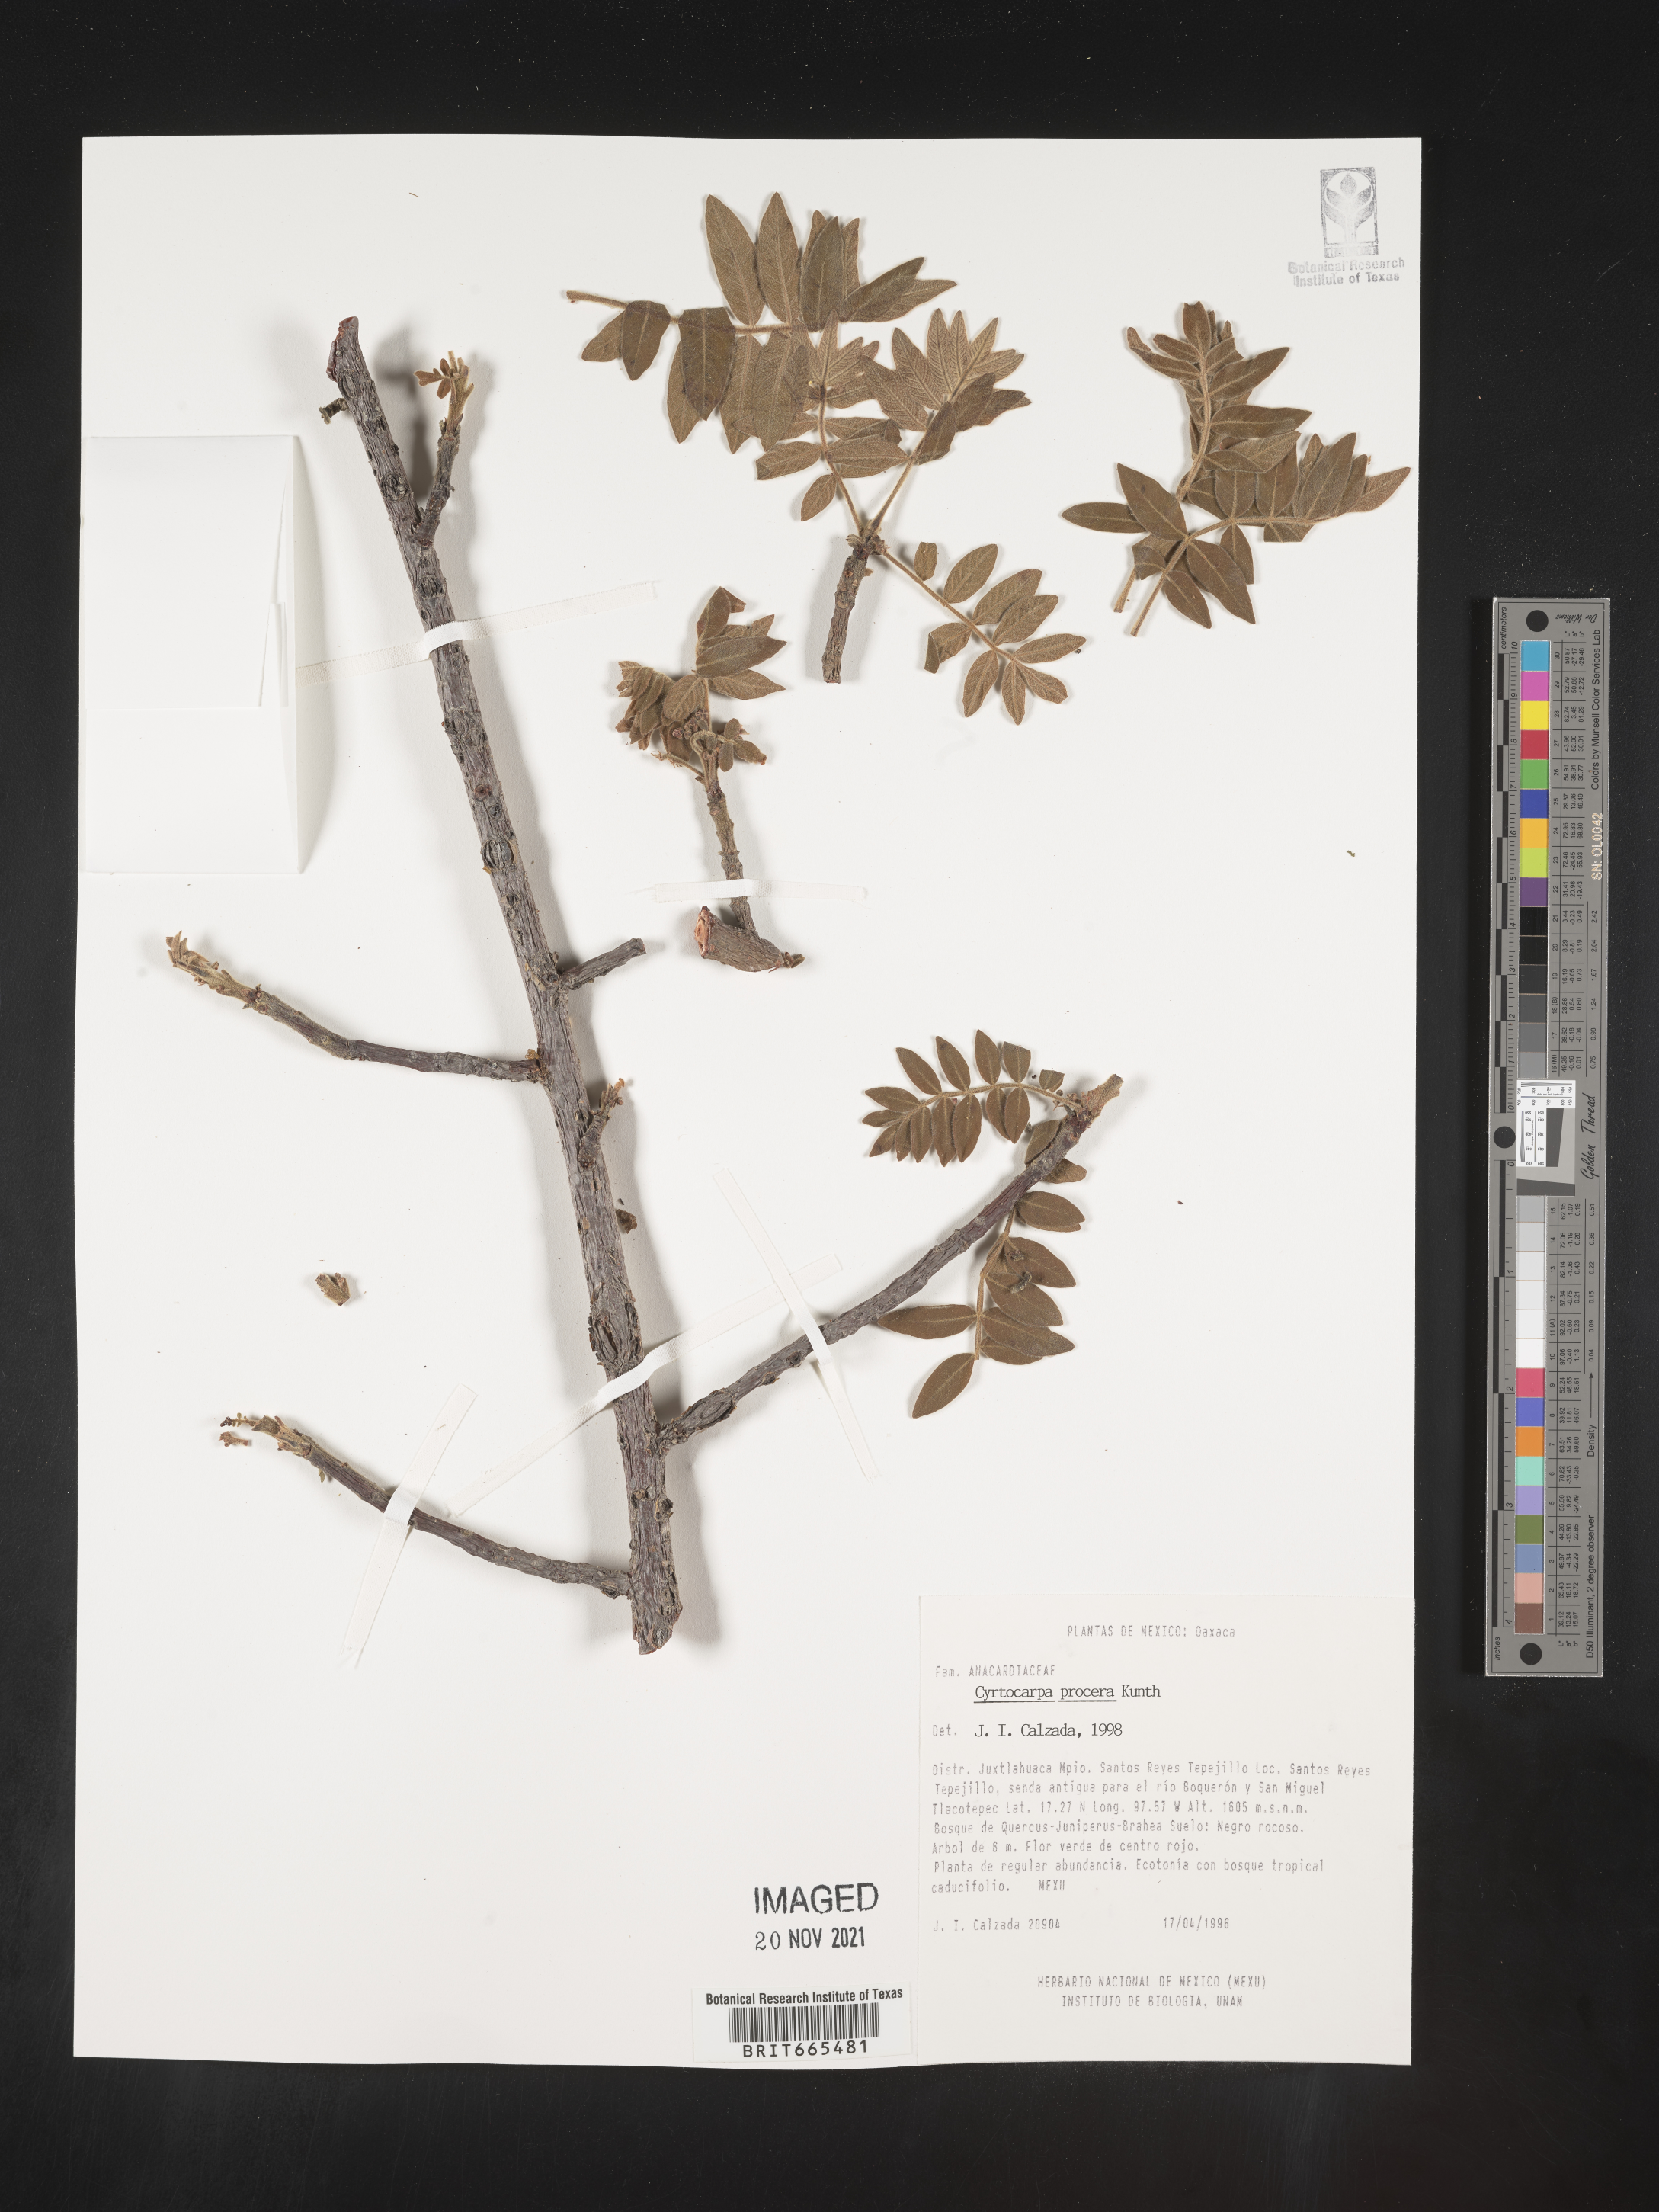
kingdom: Plantae
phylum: Tracheophyta
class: Magnoliopsida
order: Sapindales
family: Anacardiaceae
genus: Cyrtocarpa
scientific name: Cyrtocarpa
